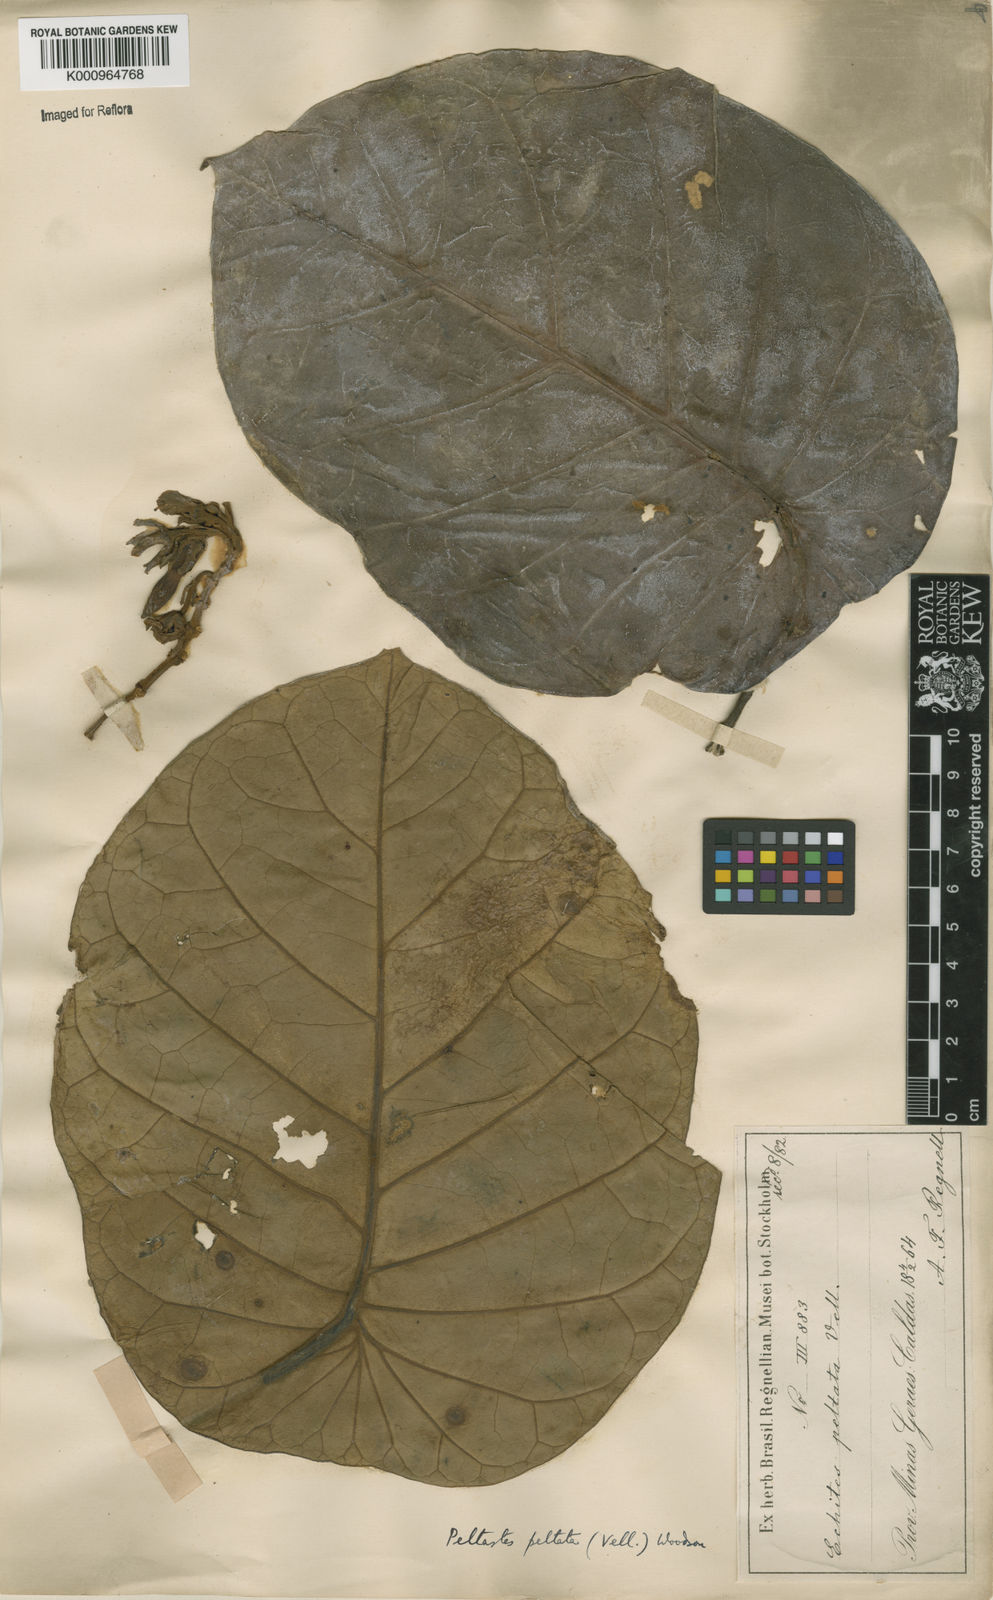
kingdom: Plantae
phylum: Tracheophyta
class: Magnoliopsida
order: Gentianales
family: Apocynaceae
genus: Macropharynx
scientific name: Macropharynx peltata
